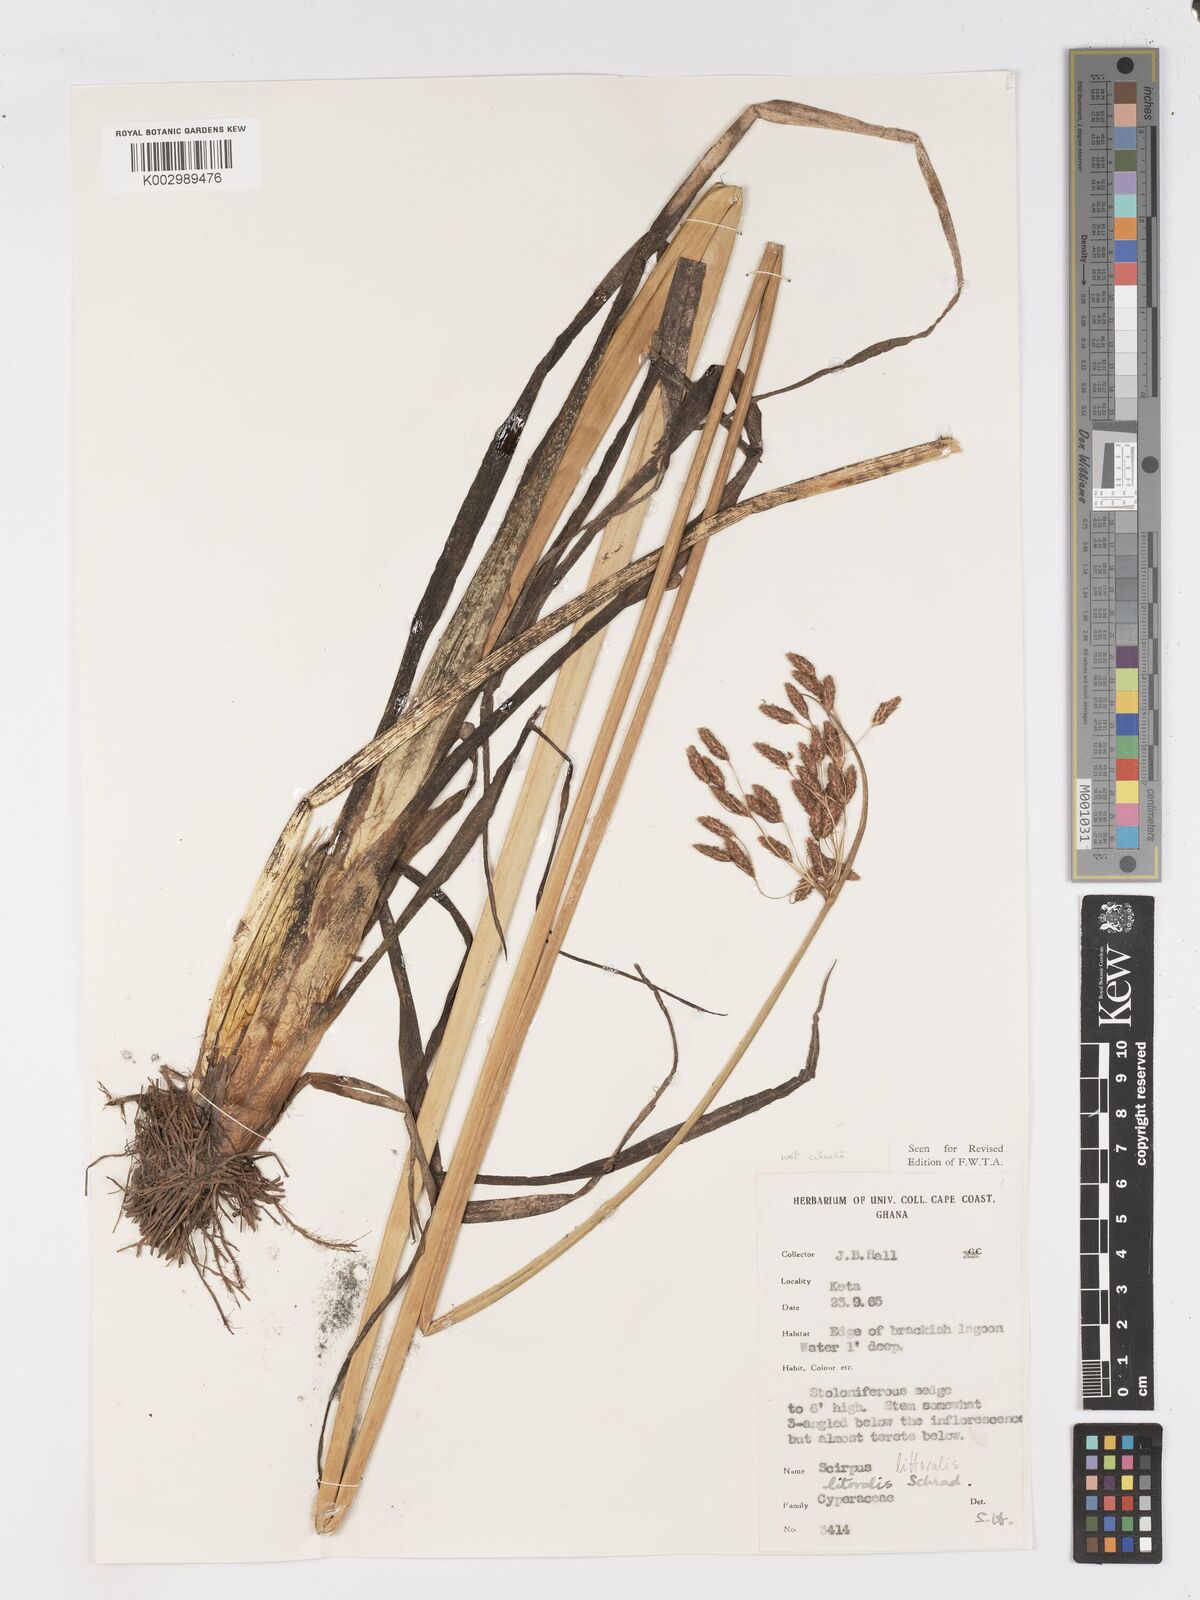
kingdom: Plantae
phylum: Tracheophyta
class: Liliopsida
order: Poales
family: Cyperaceae
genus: Schoenoplectus
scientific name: Schoenoplectus litoralis
